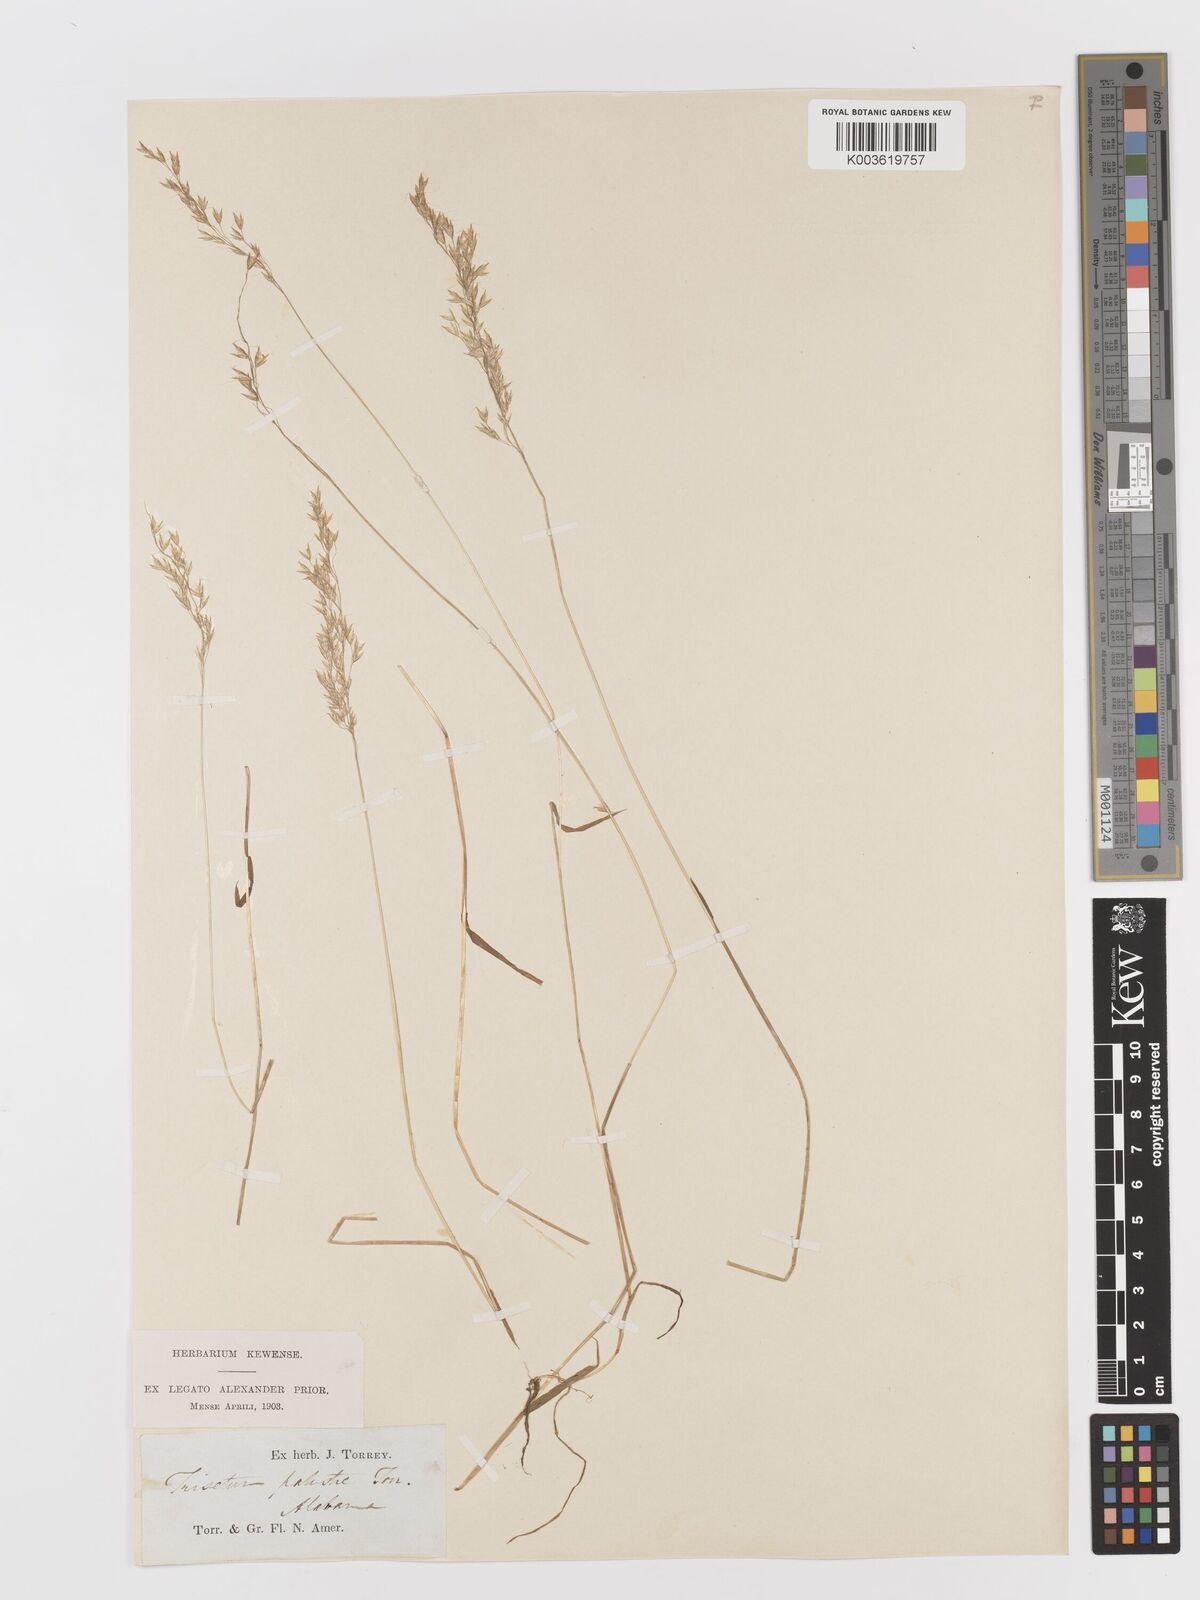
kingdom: Plantae
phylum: Tracheophyta
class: Liliopsida
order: Poales
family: Poaceae
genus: Sphenopholis
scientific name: Sphenopholis pensylvanica
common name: Swamp oats
